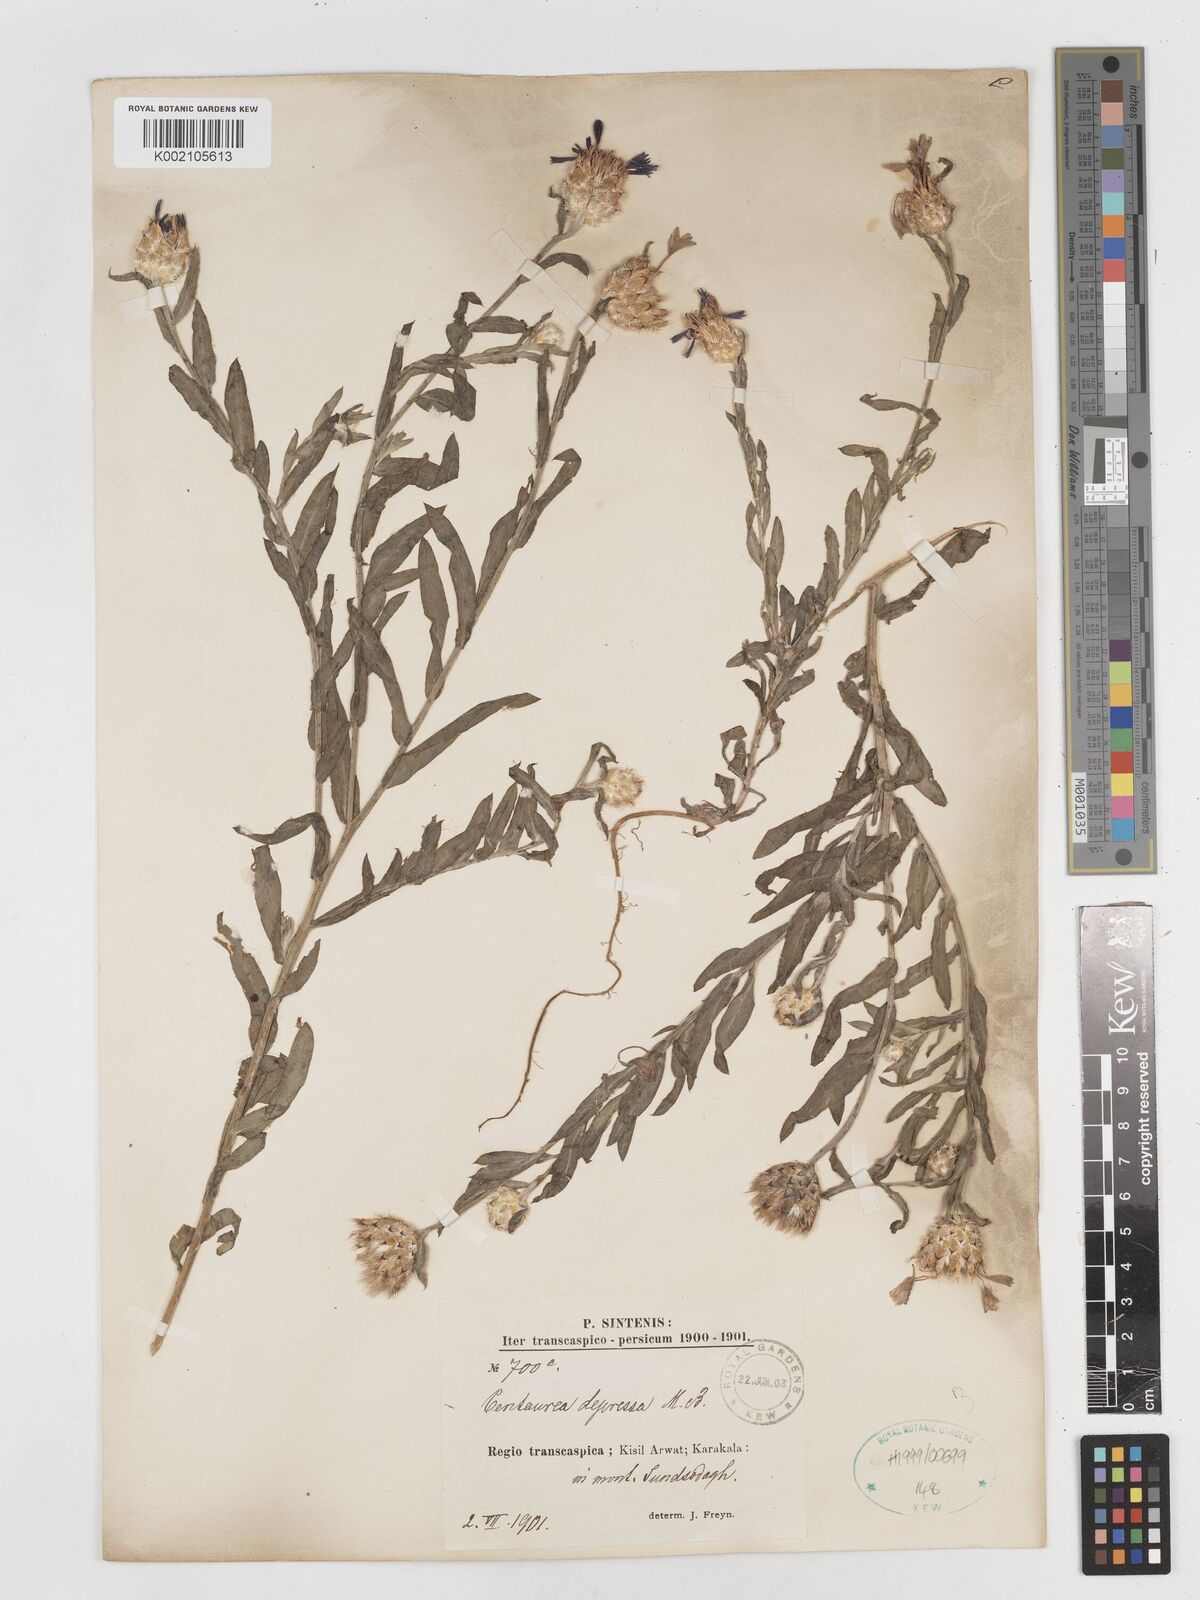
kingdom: Plantae
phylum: Tracheophyta
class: Magnoliopsida
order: Asterales
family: Asteraceae
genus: Centaurea
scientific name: Centaurea depressa
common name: Iranian knapweed
